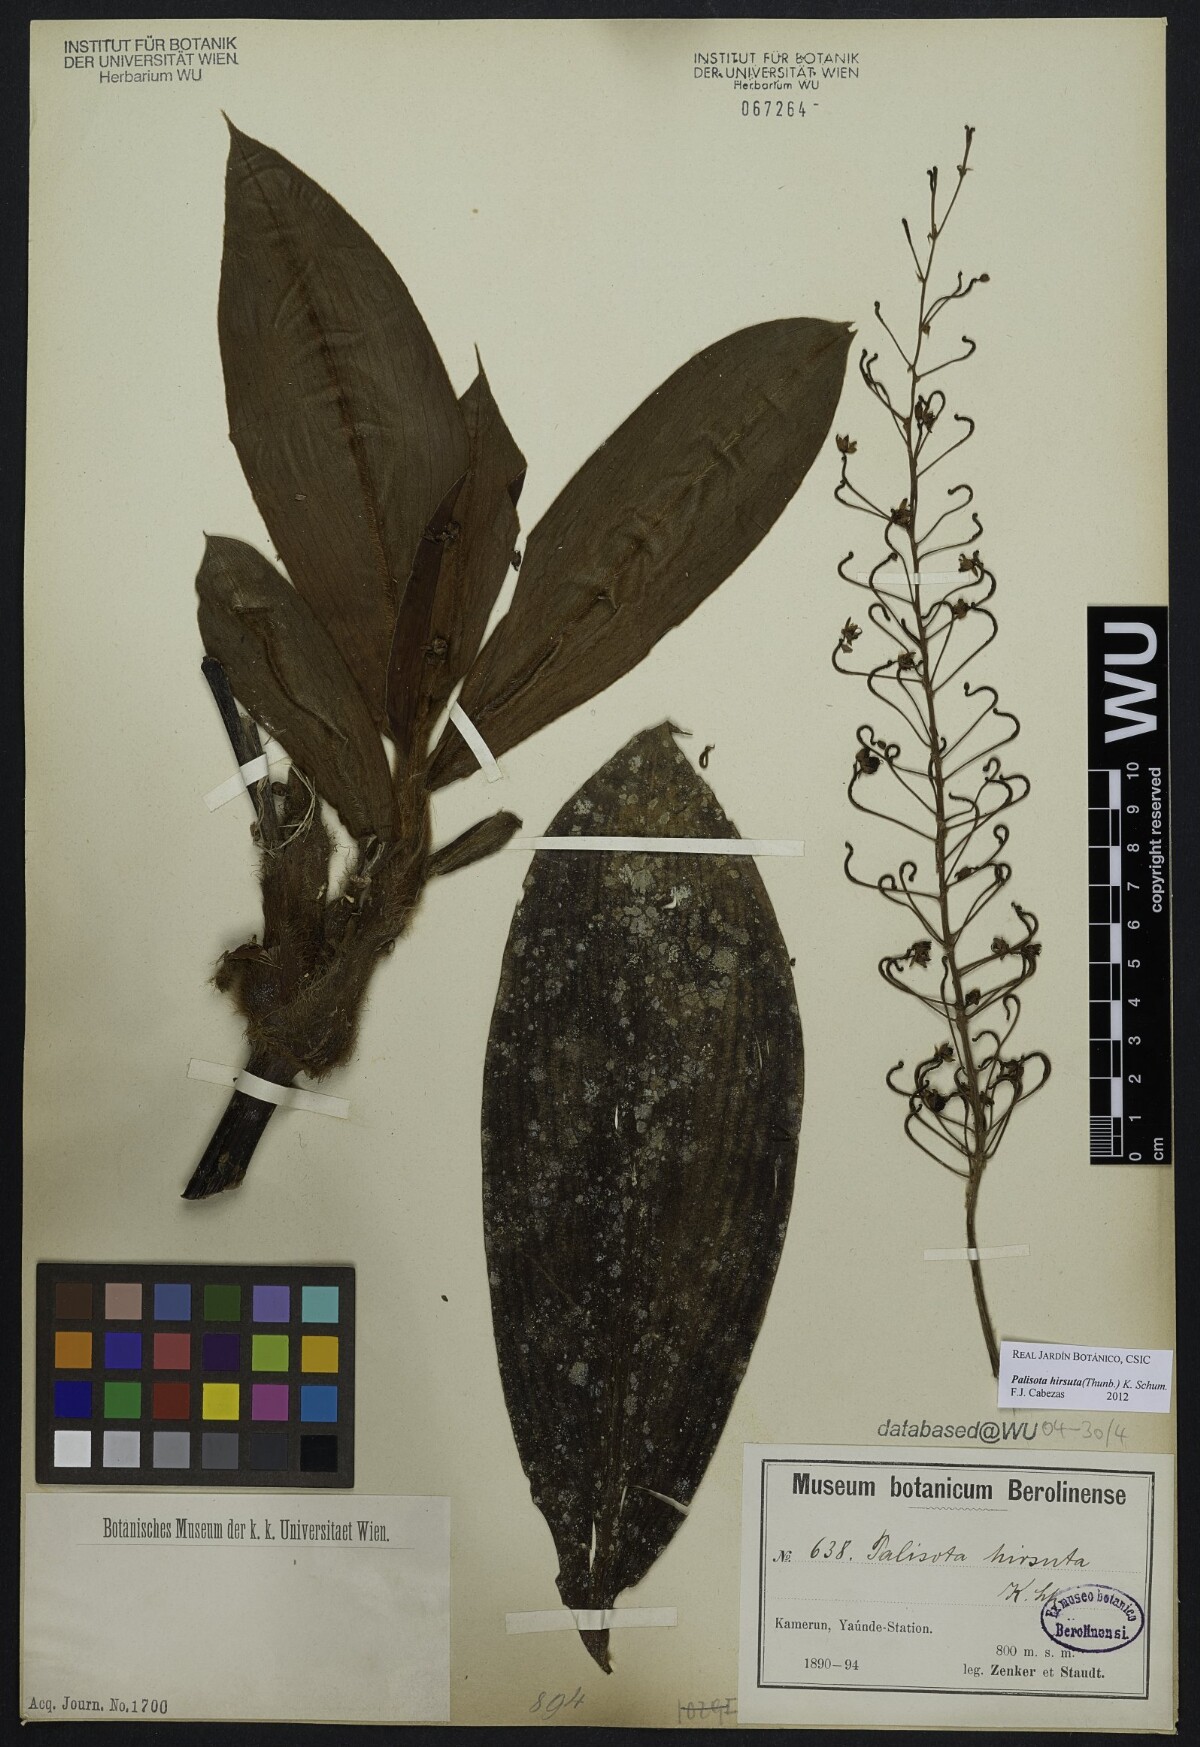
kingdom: Plantae
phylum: Tracheophyta
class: Liliopsida
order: Commelinales
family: Commelinaceae
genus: Palisota
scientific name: Palisota hirsuta
